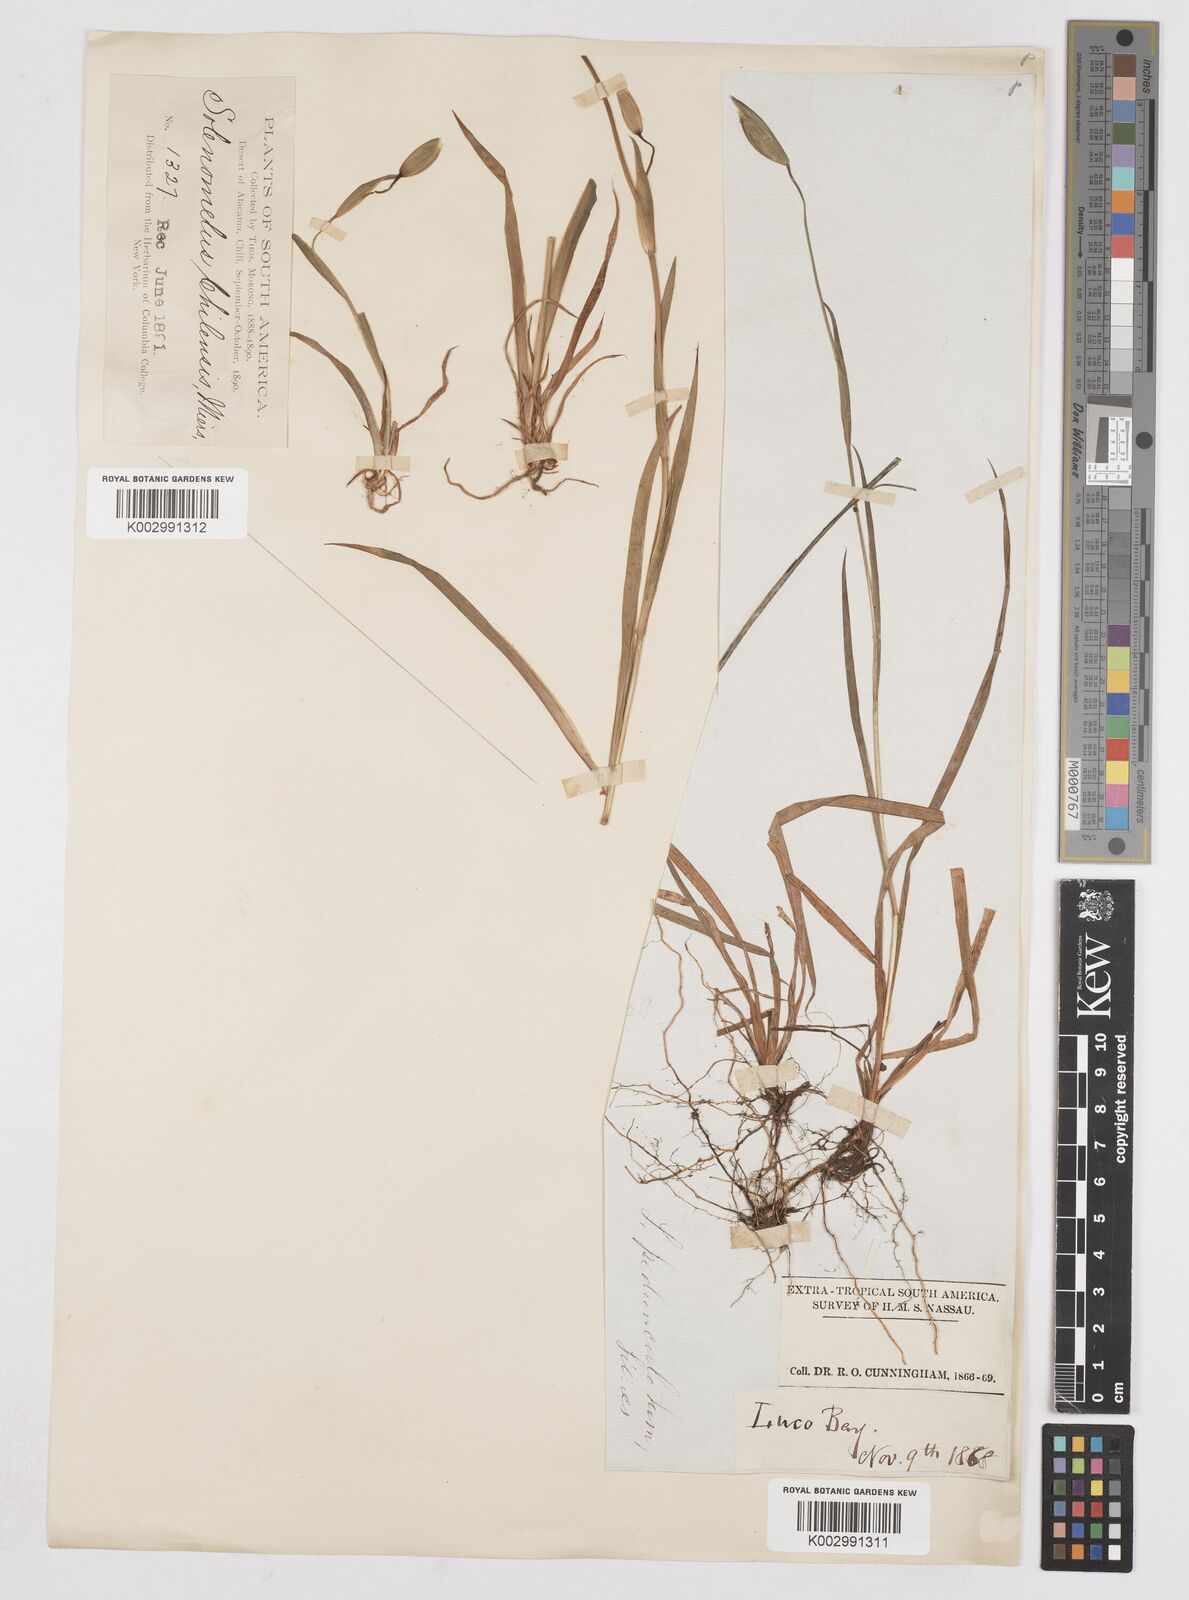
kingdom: Plantae
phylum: Tracheophyta
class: Liliopsida
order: Asparagales
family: Iridaceae
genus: Solenomelus
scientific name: Solenomelus pedunculatus
